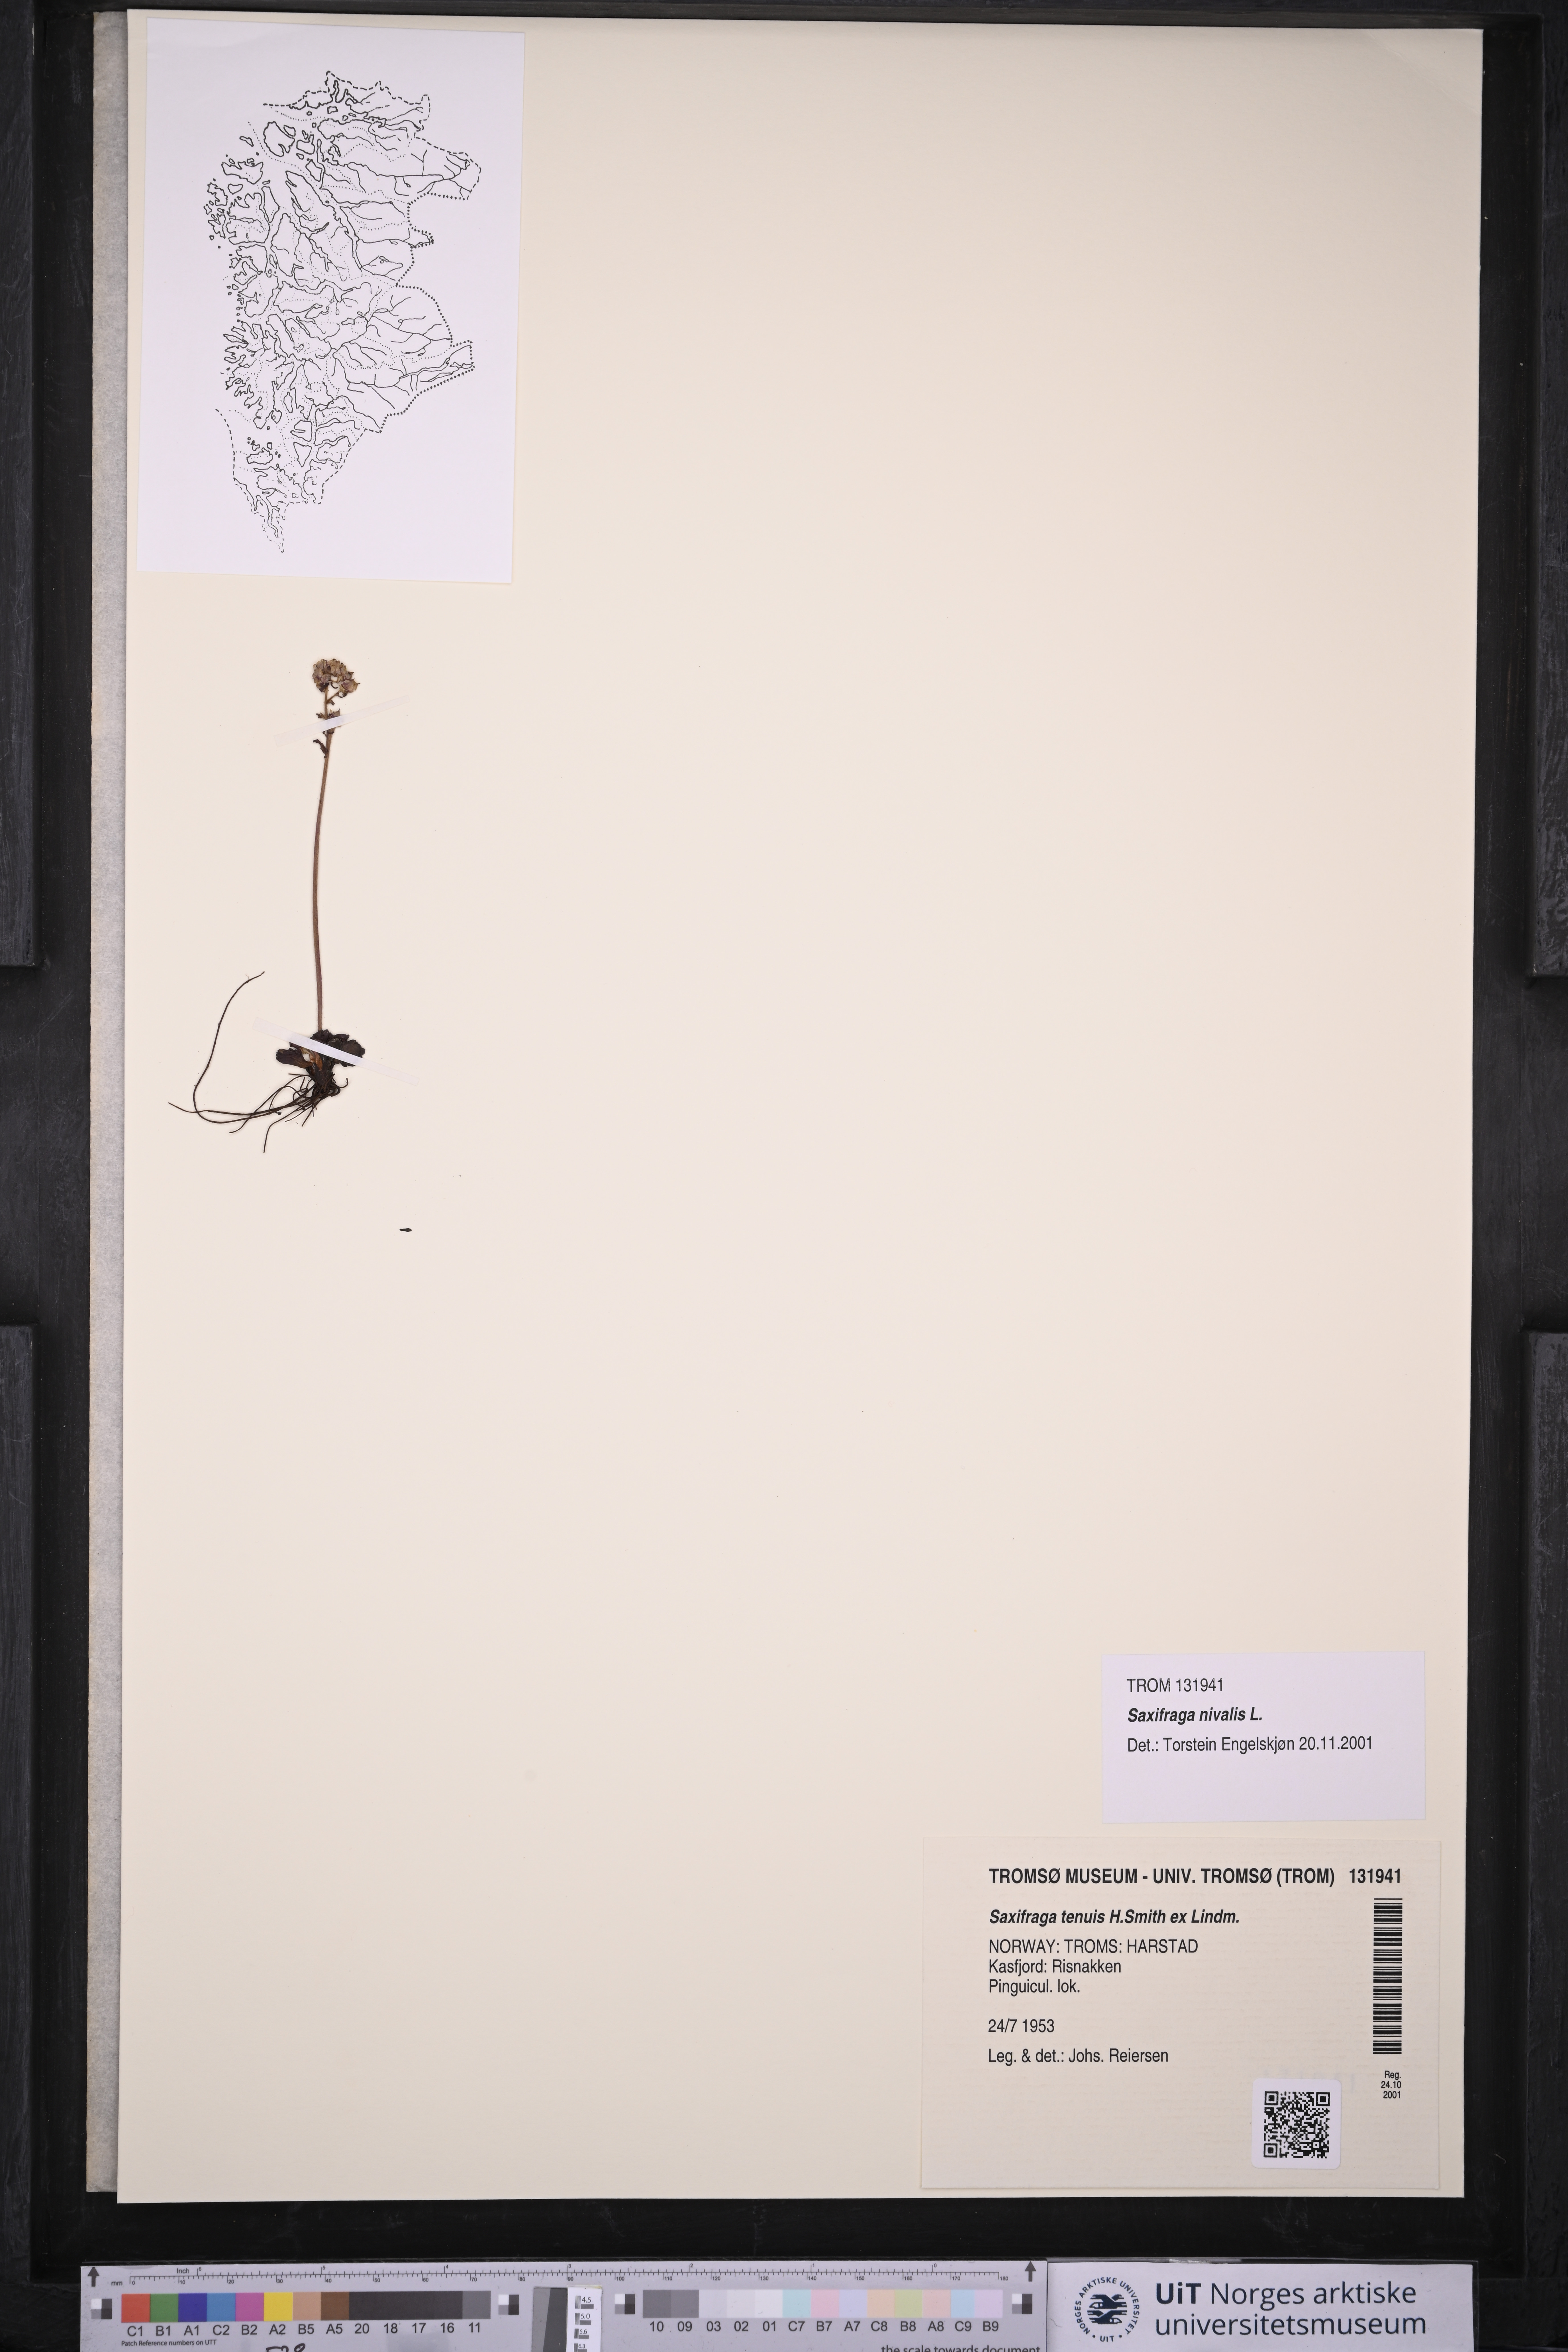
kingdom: Plantae
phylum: Tracheophyta
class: Magnoliopsida
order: Saxifragales
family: Saxifragaceae
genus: Micranthes
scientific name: Micranthes nivalis
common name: Alpine saxifrage
